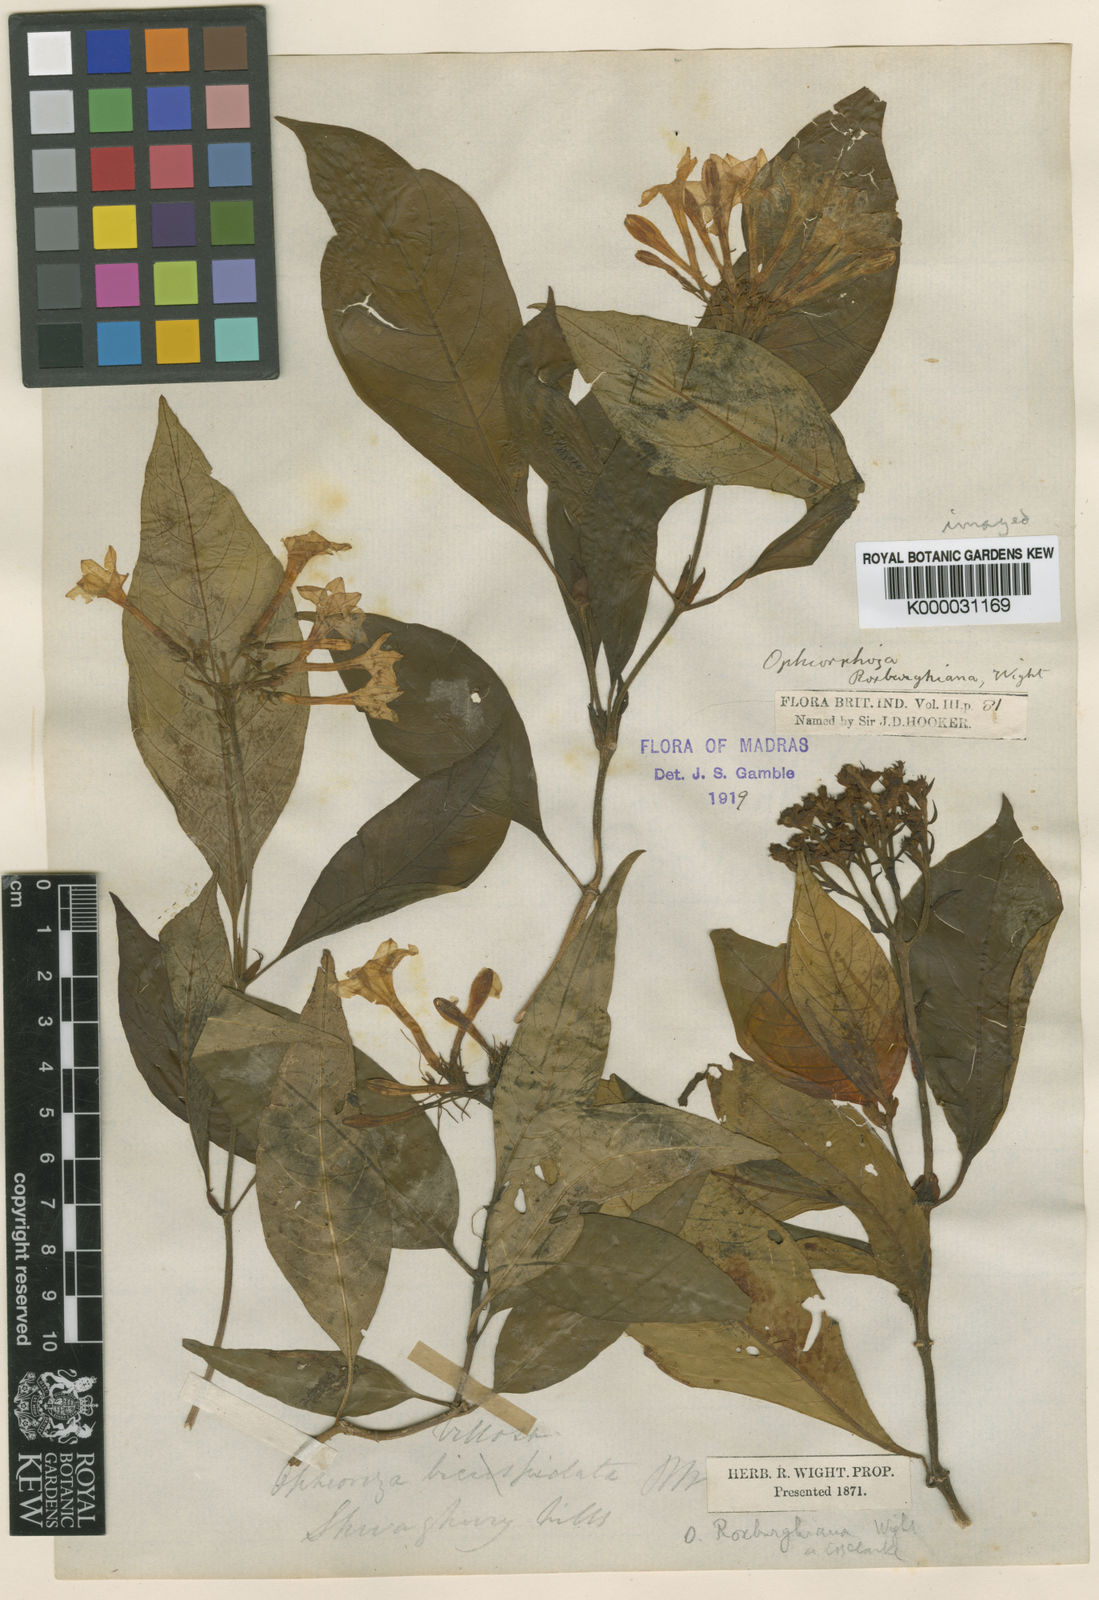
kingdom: Plantae
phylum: Tracheophyta
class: Magnoliopsida
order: Gentianales
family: Rubiaceae
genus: Ophiorrhiza
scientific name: Ophiorrhiza roxburghiana
